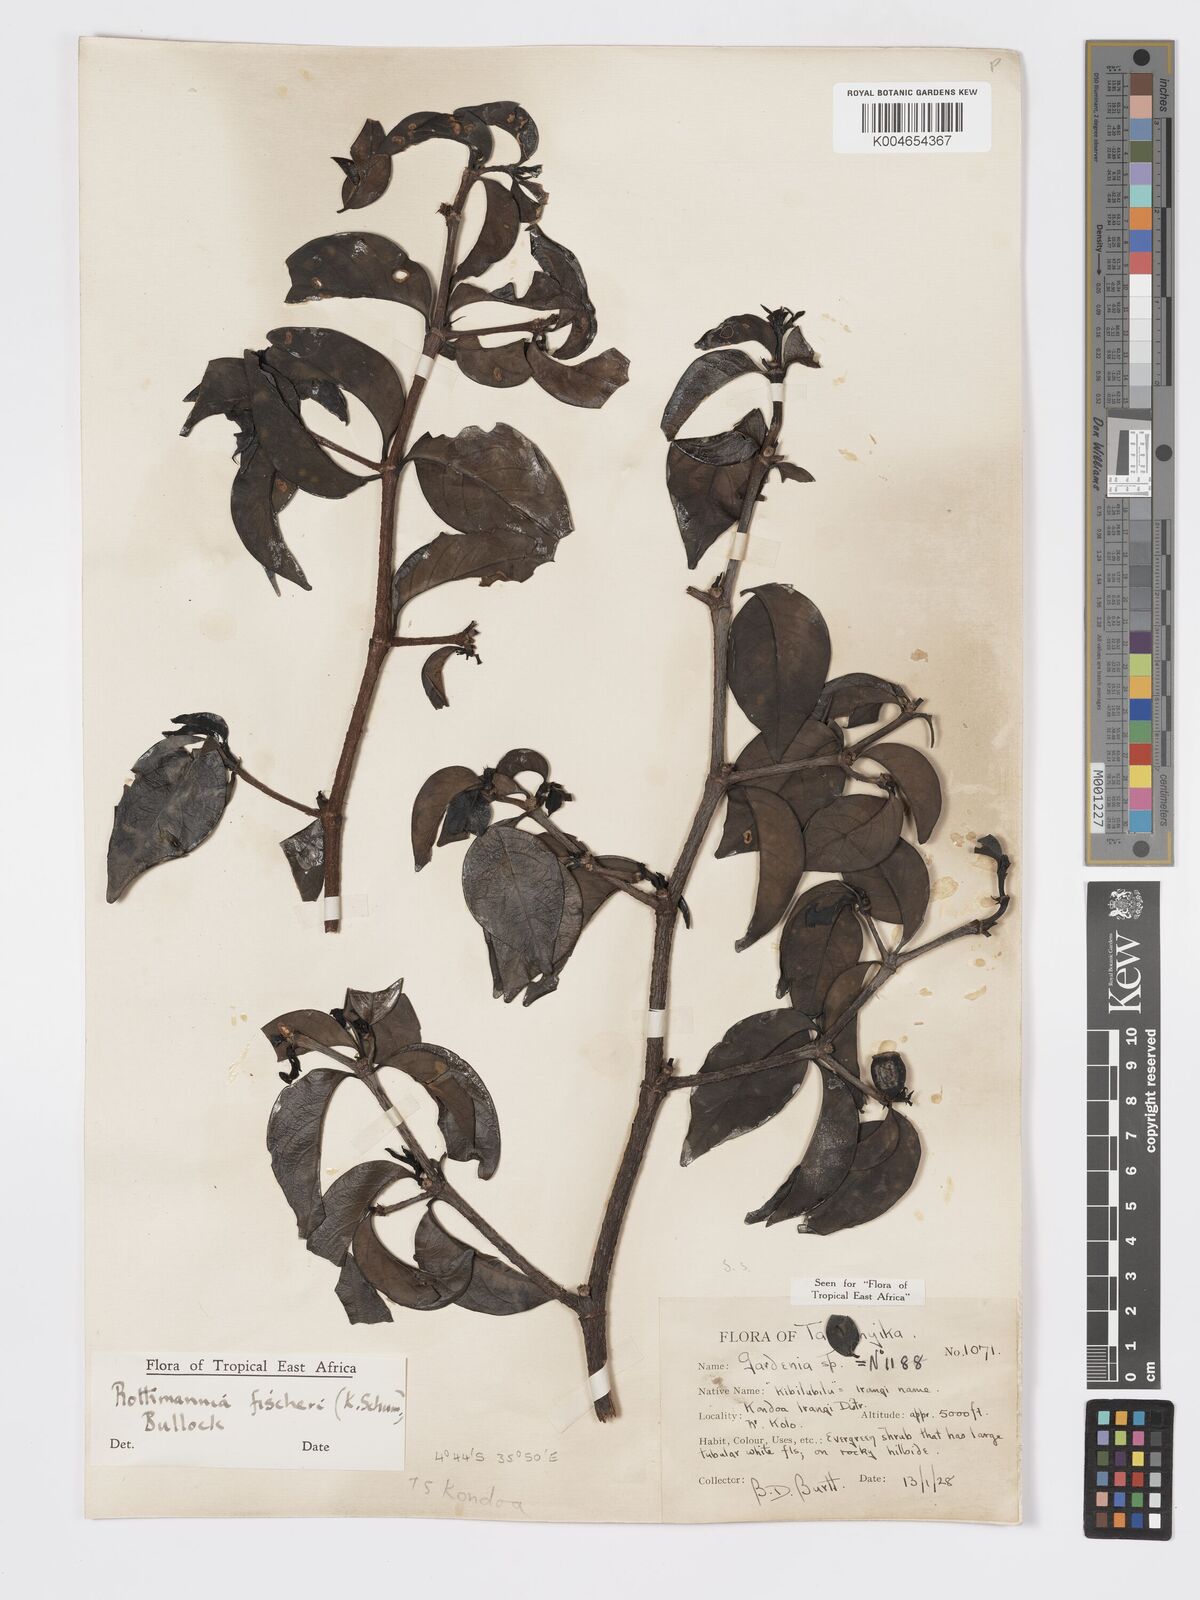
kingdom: Plantae
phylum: Tracheophyta
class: Magnoliopsida
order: Gentianales
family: Rubiaceae
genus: Rothmannia
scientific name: Rothmannia fischeri
